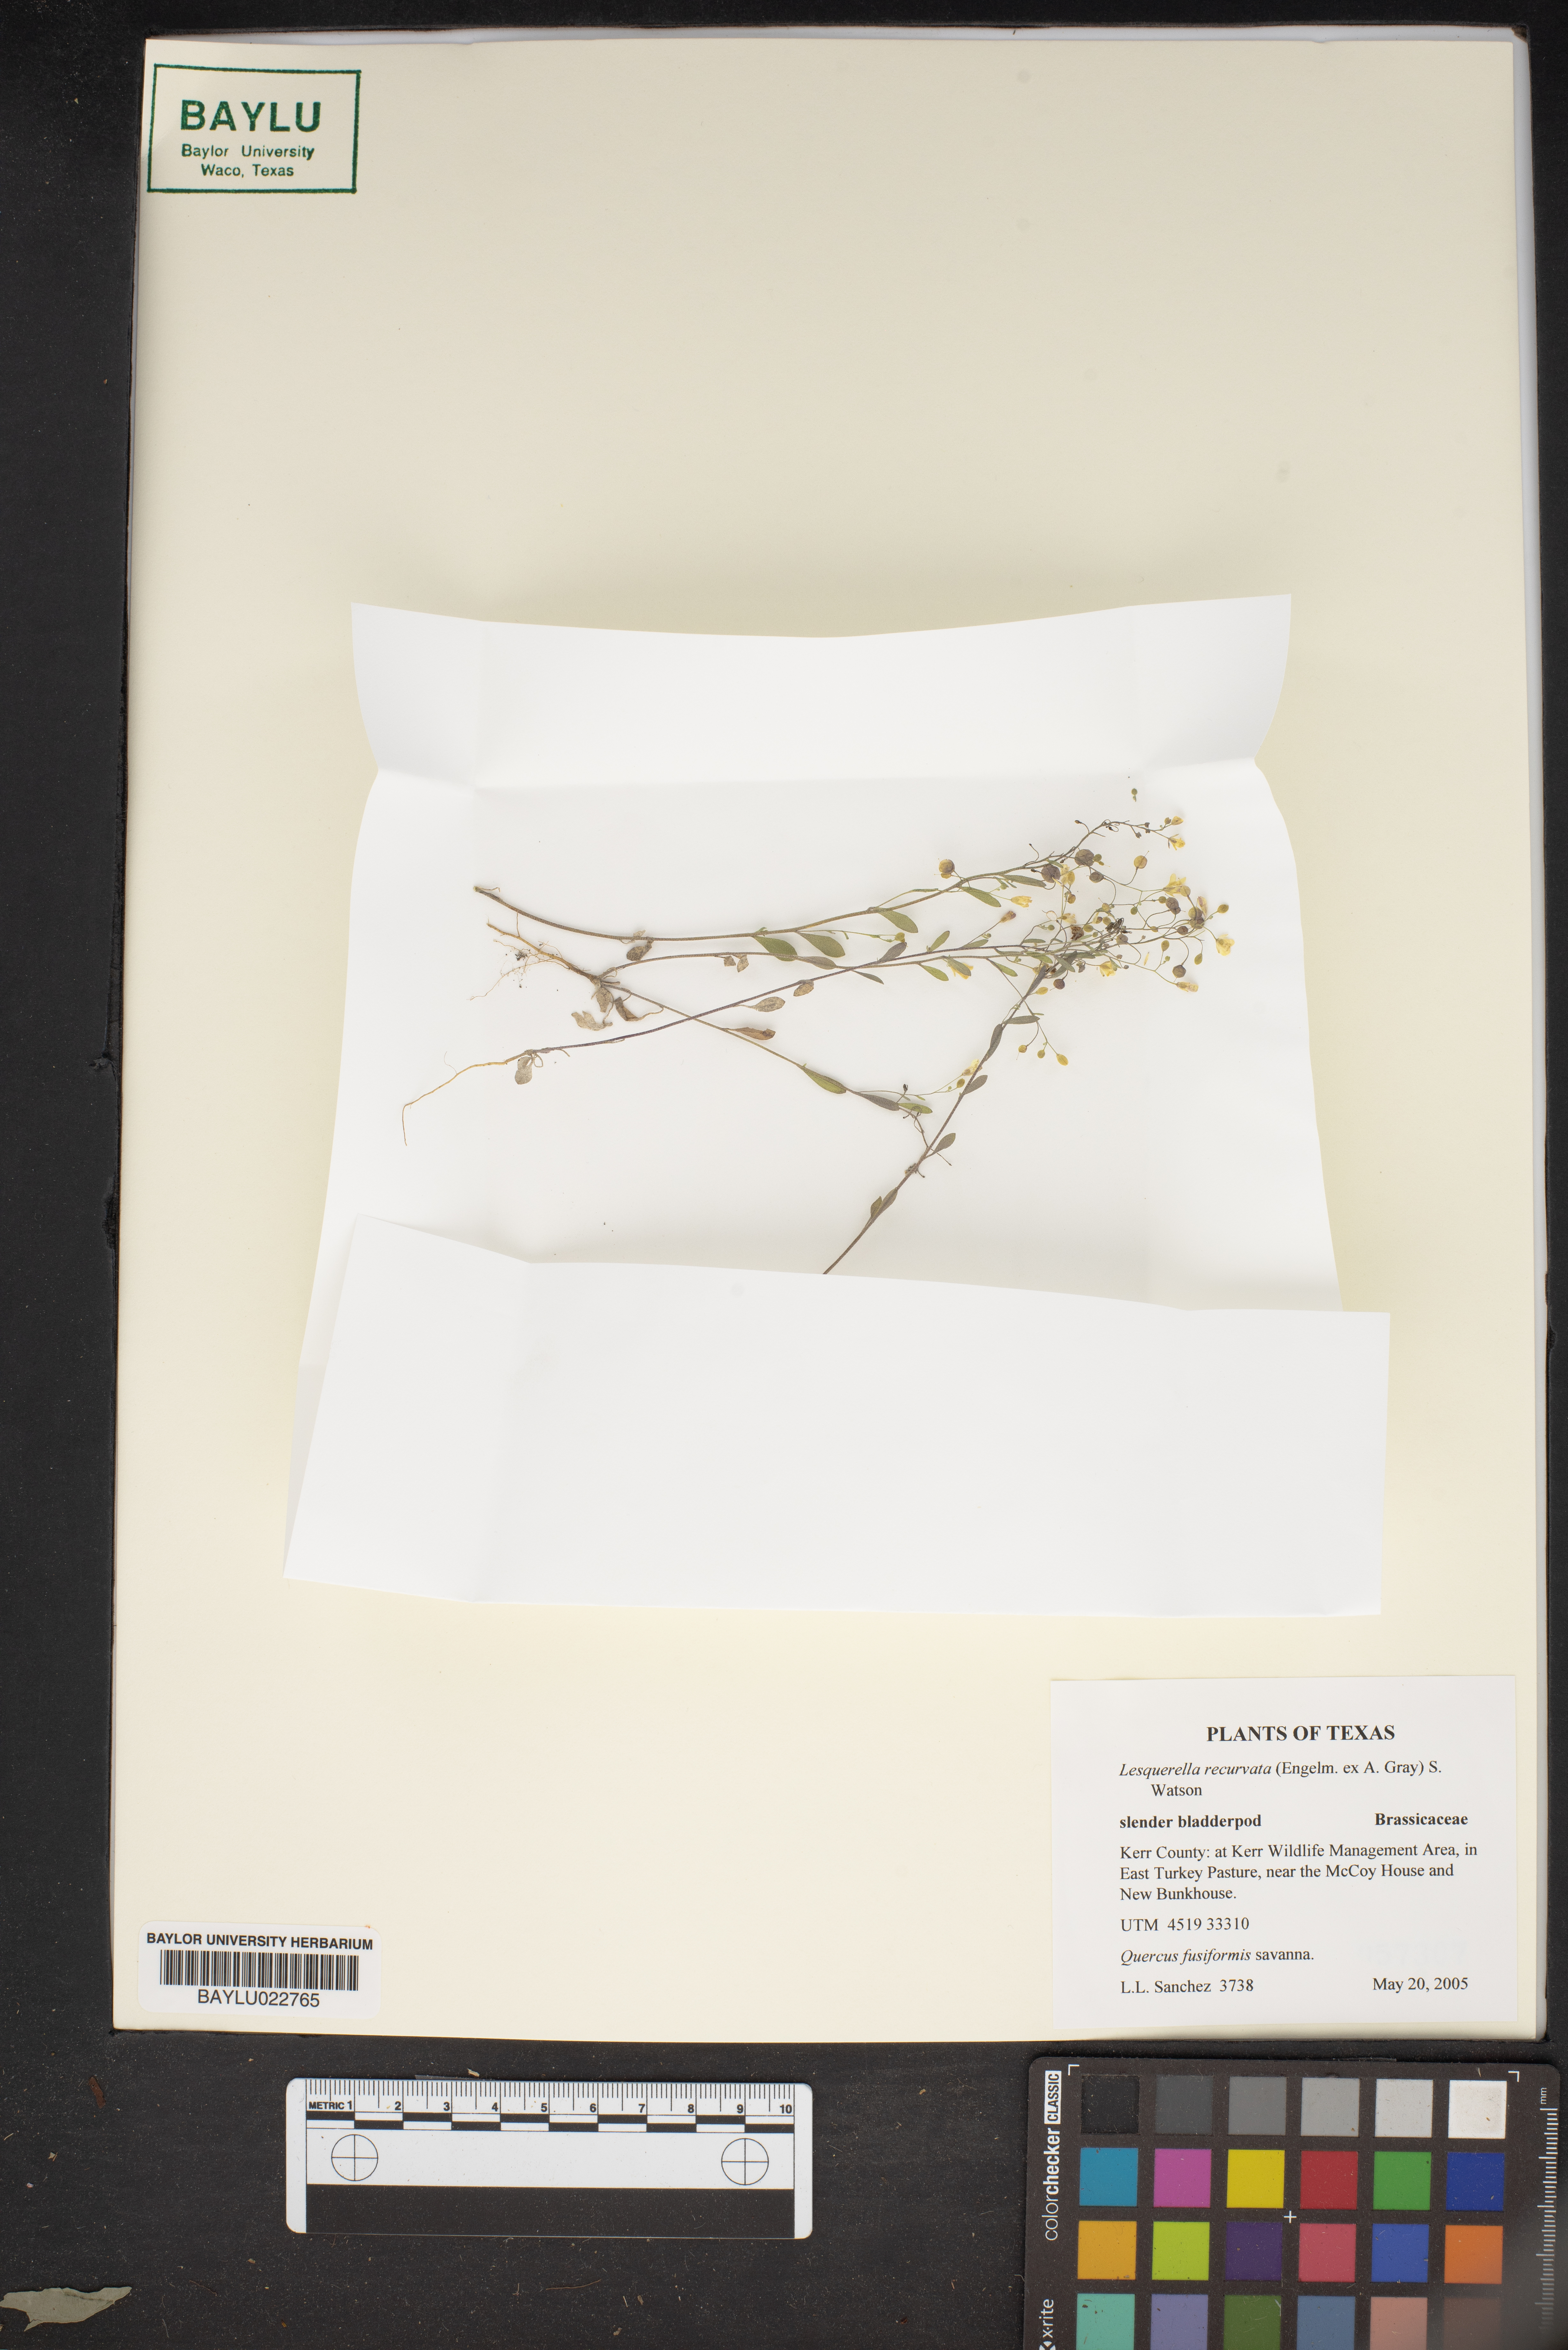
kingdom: Plantae
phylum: Tracheophyta
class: Magnoliopsida
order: Brassicales
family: Brassicaceae
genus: Physaria
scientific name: Physaria recurvata
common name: Gaslight bladderpod
